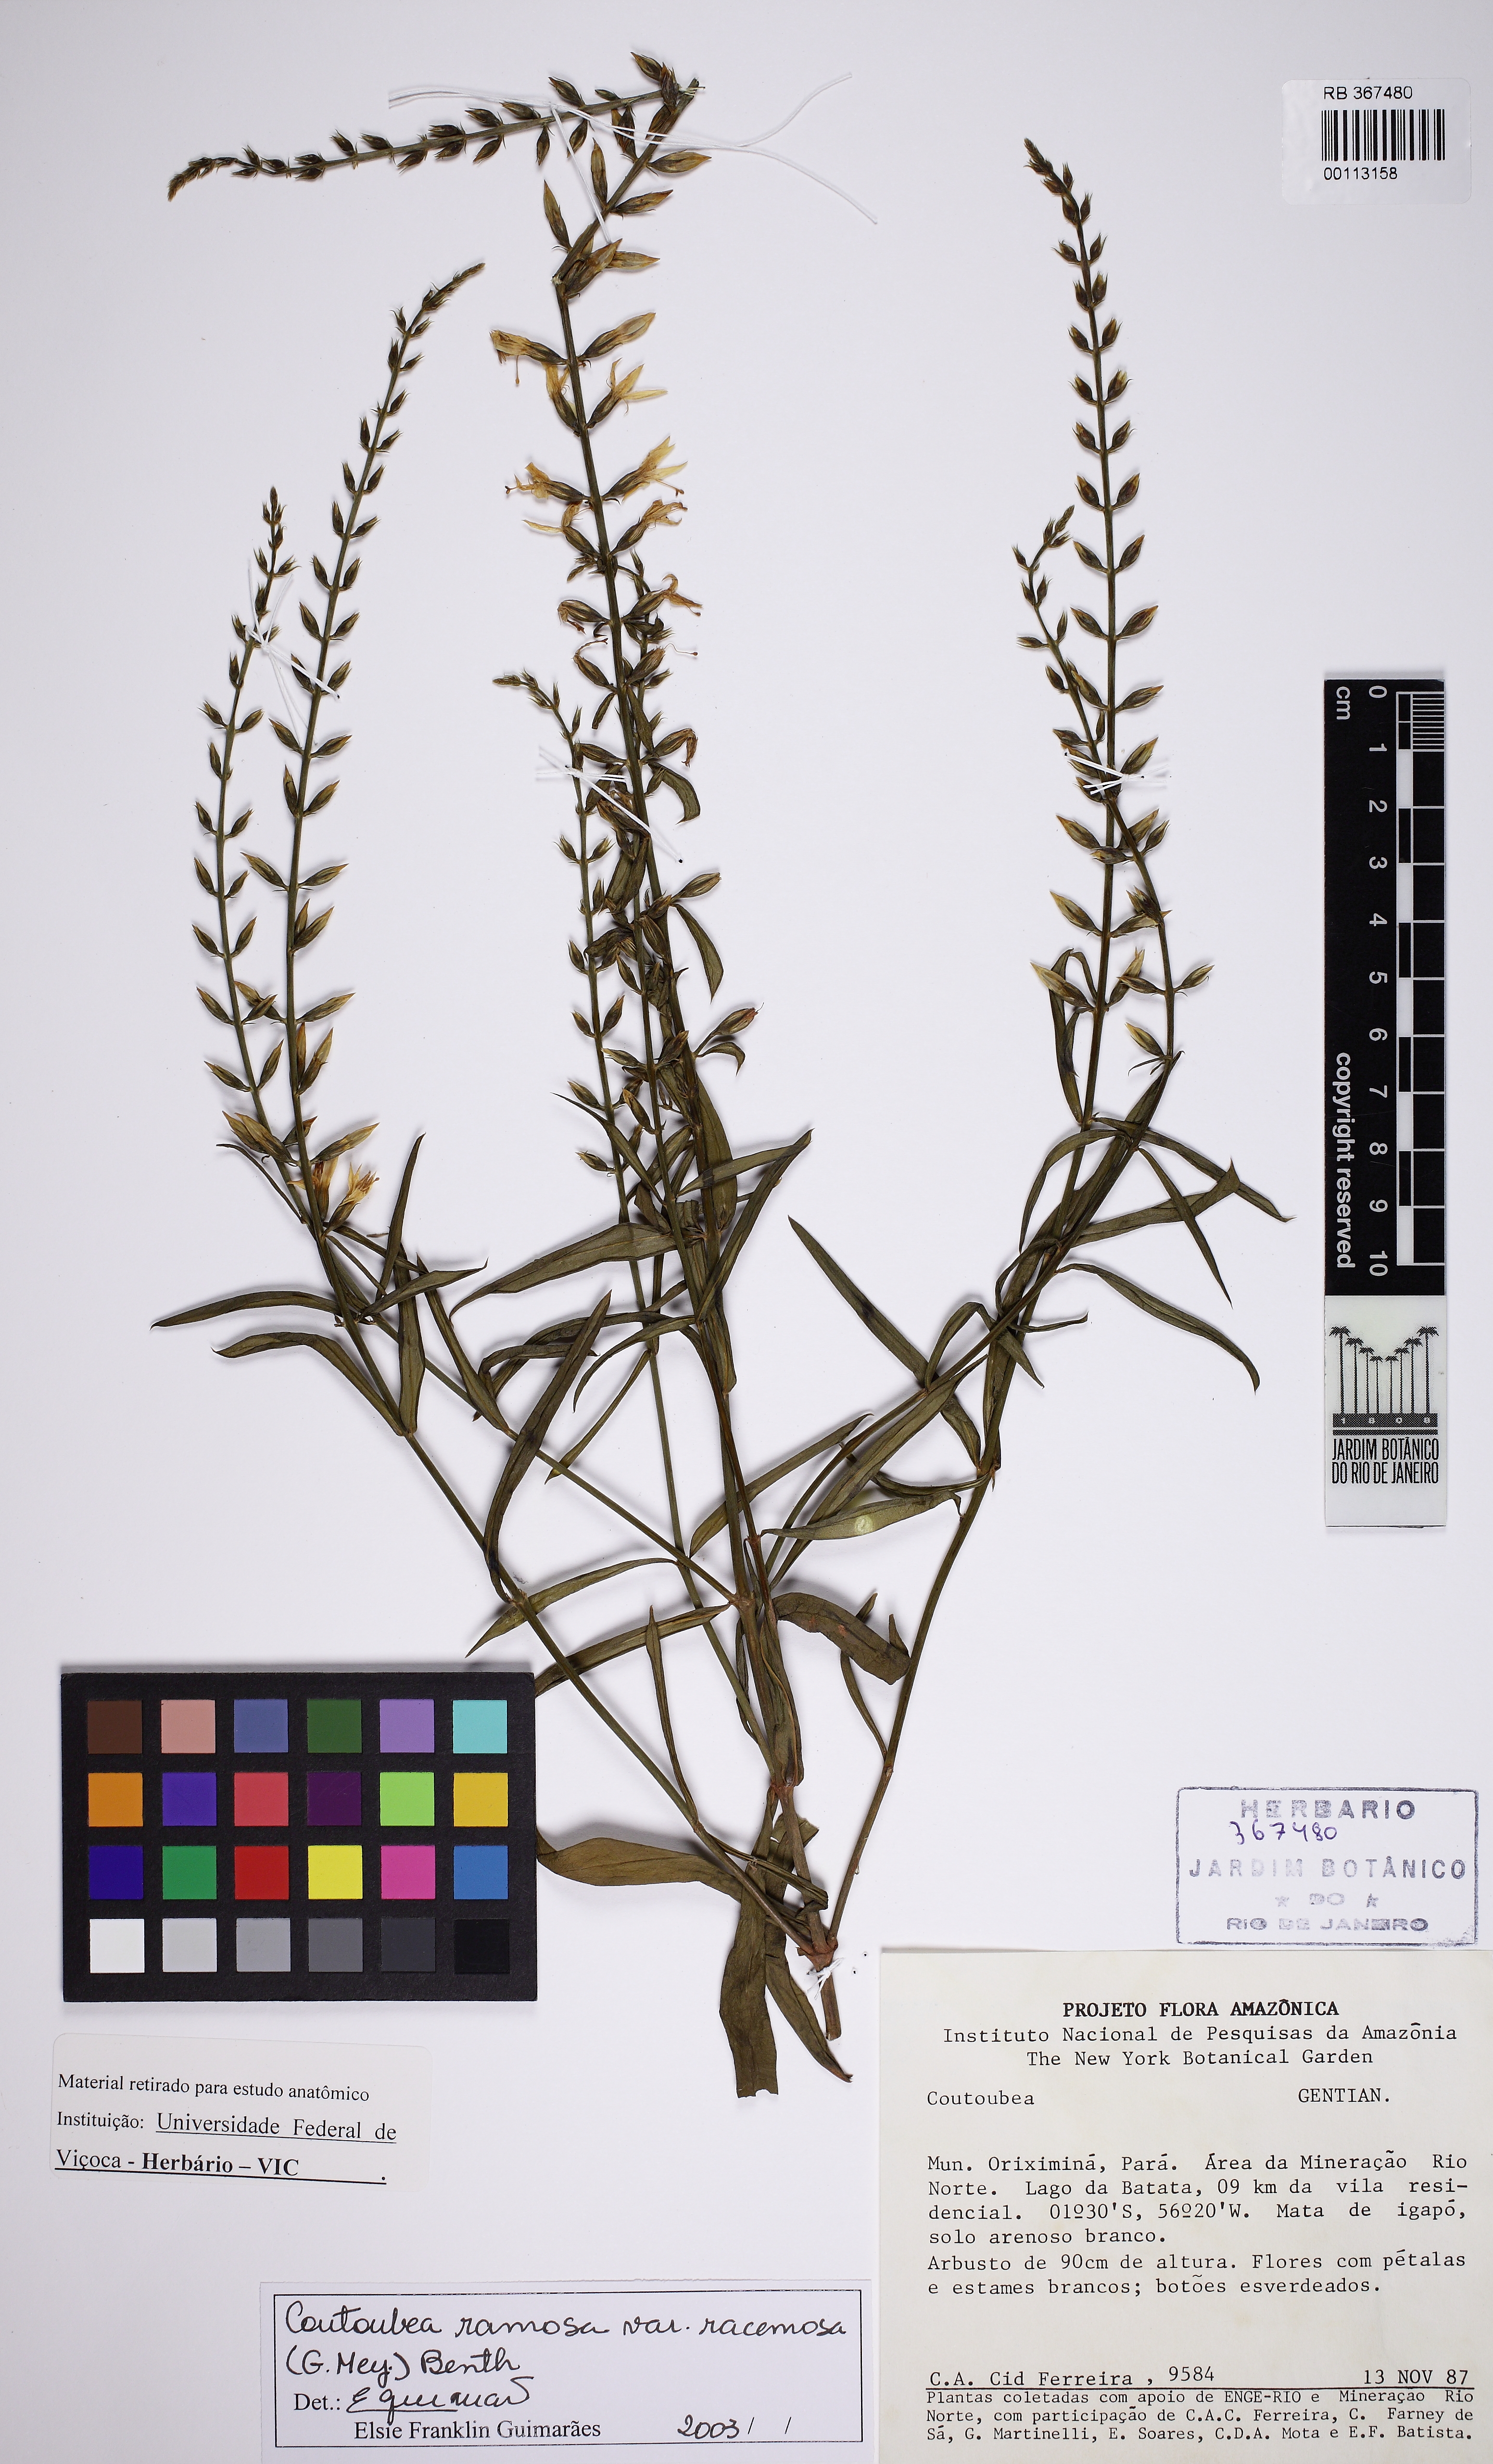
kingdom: Plantae
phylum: Tracheophyta
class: Magnoliopsida
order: Gentianales
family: Gentianaceae
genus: Coutoubea
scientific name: Coutoubea ramosa
